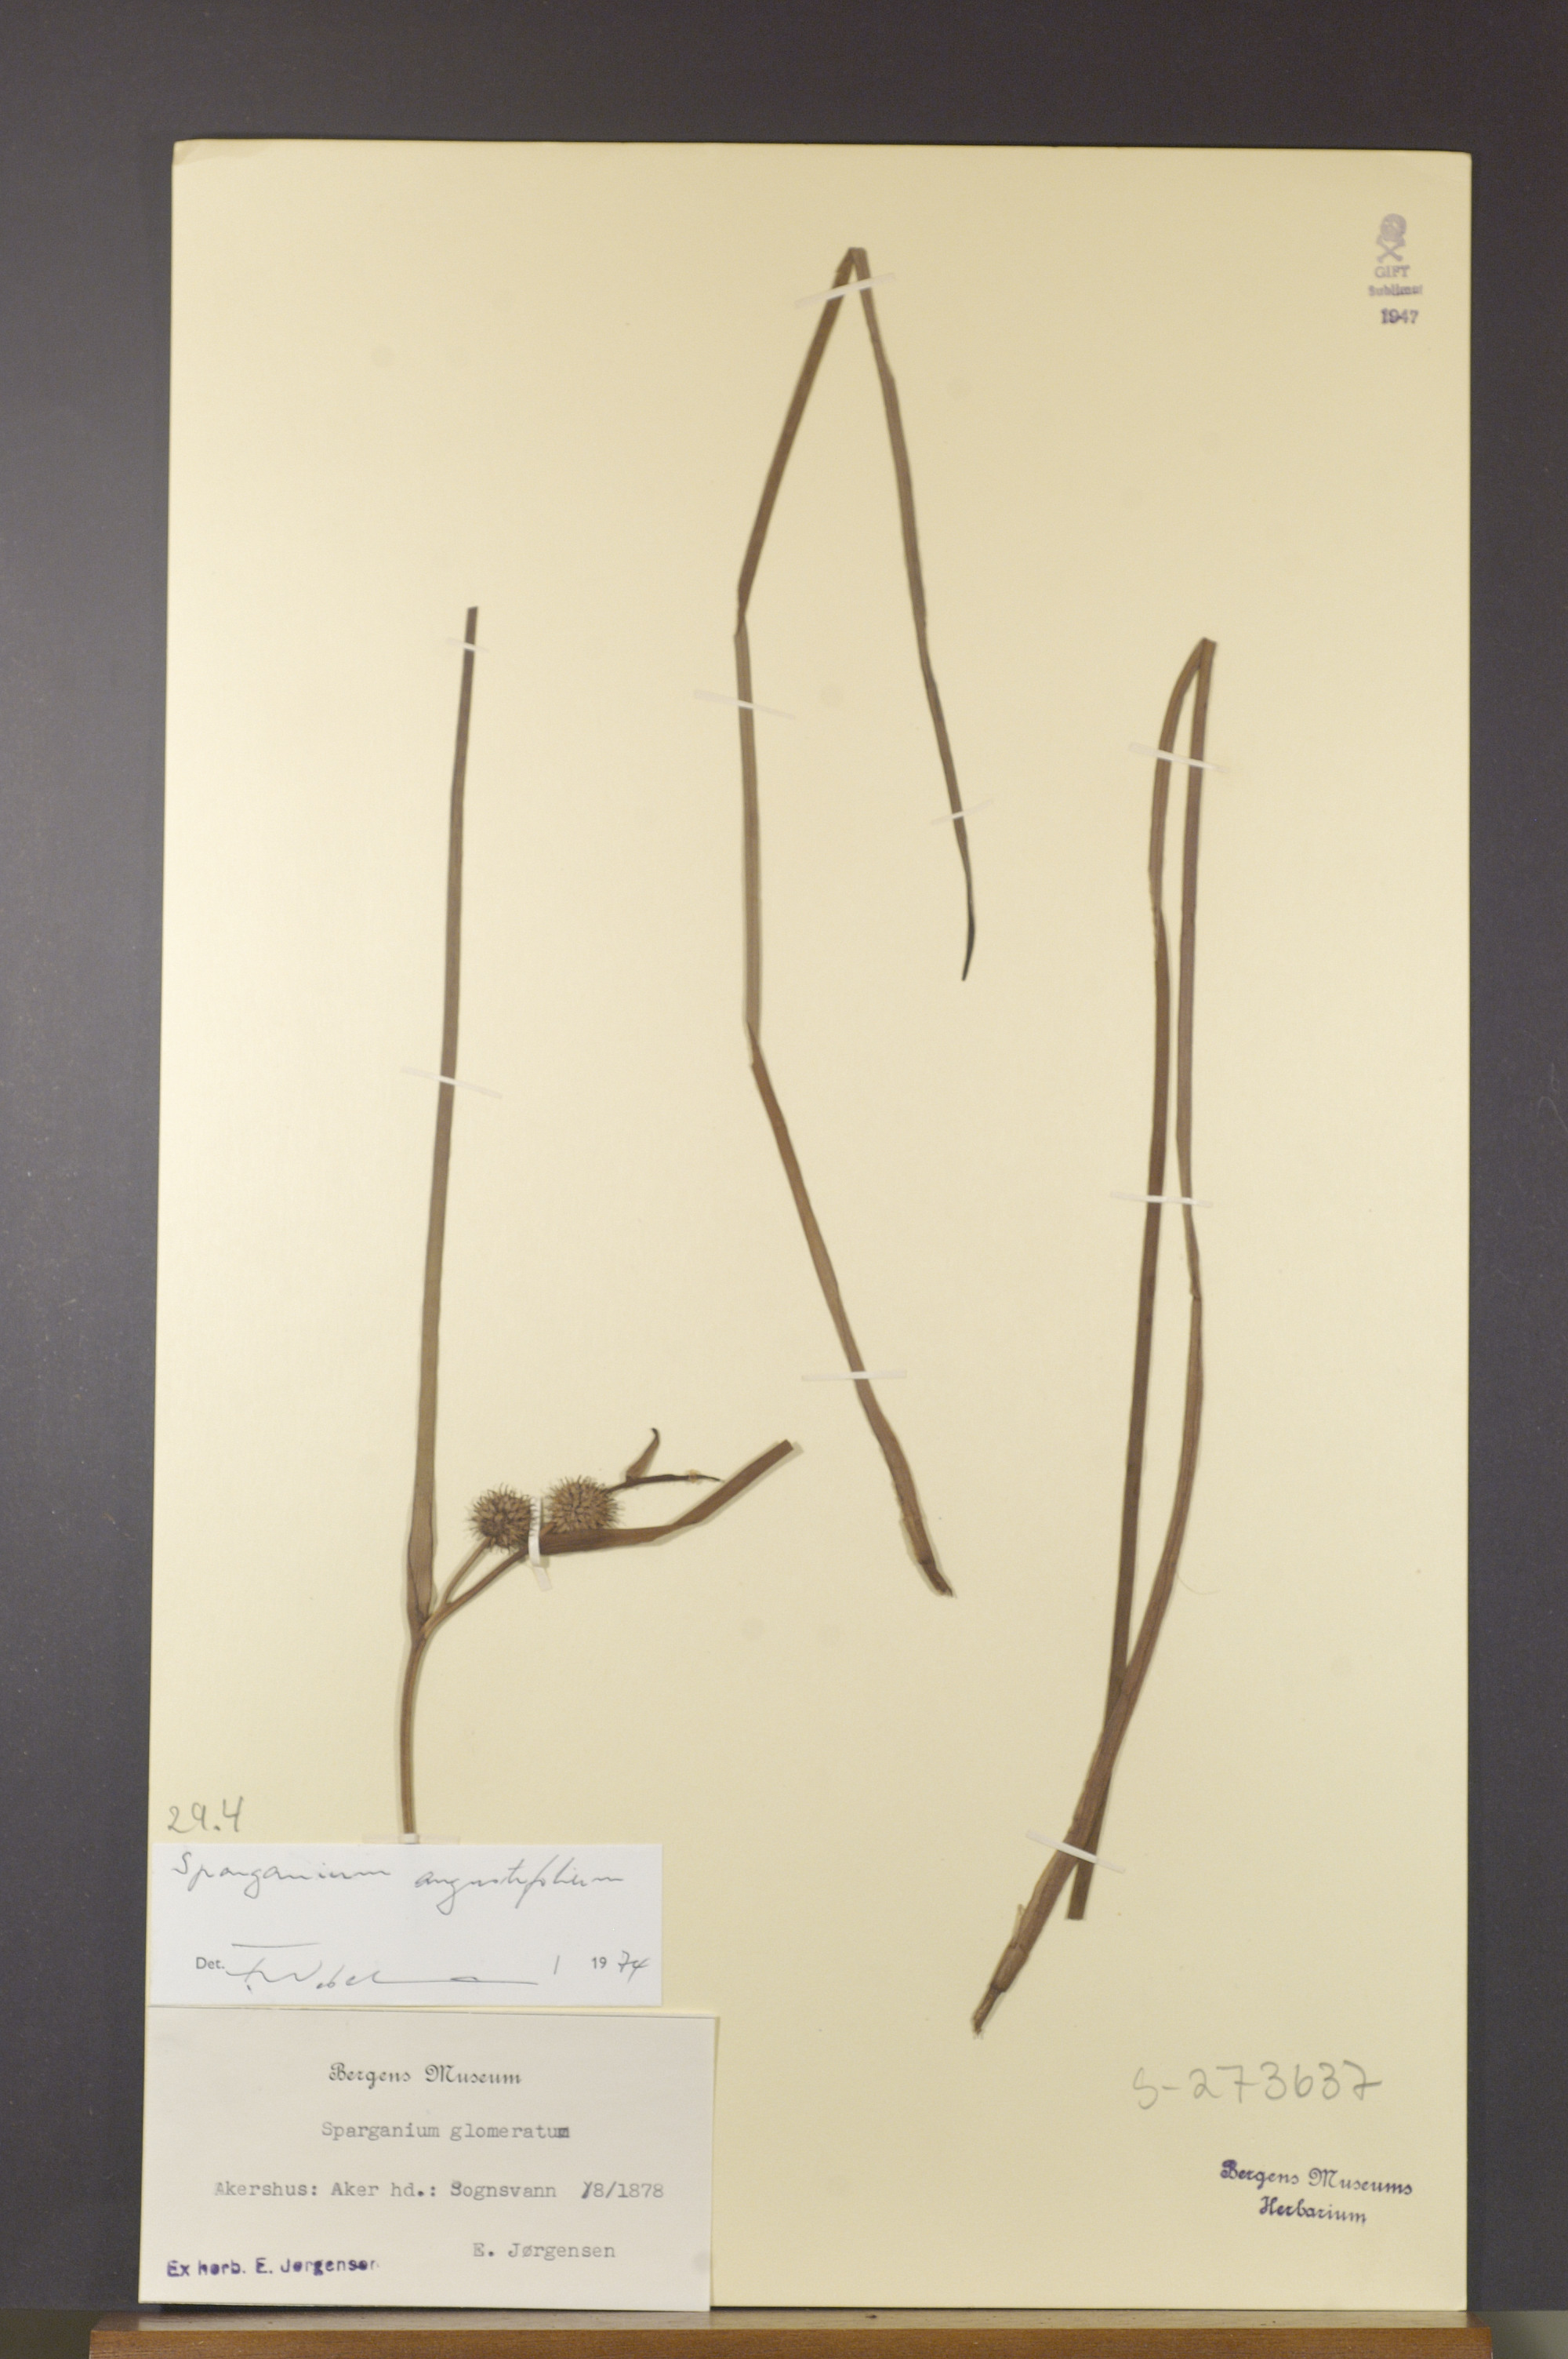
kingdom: Plantae
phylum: Tracheophyta
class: Liliopsida
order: Poales
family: Typhaceae
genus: Sparganium
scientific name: Sparganium angustifolium
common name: Floating bur-reed
